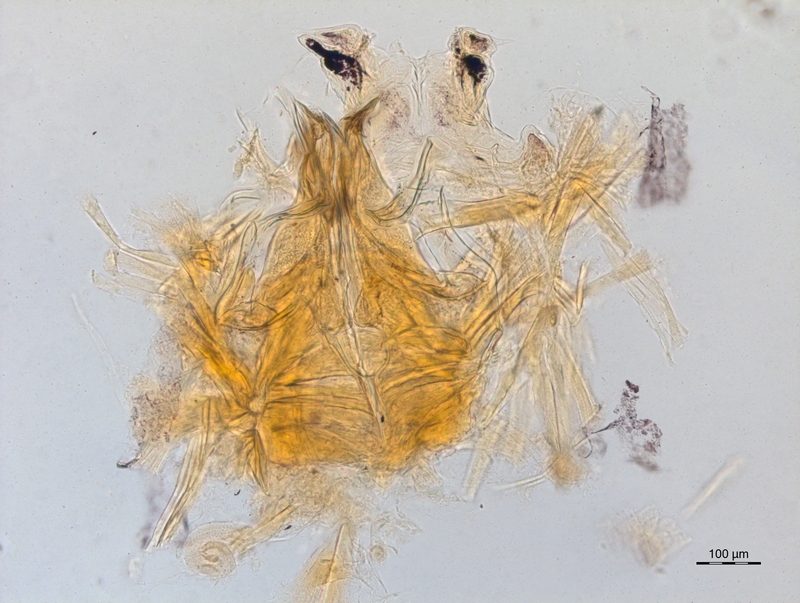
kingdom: Animalia
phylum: Arthropoda
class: Diplopoda
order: Chordeumatida
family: Craspedosomatidae
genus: Bomogona
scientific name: Bomogona lombardica
